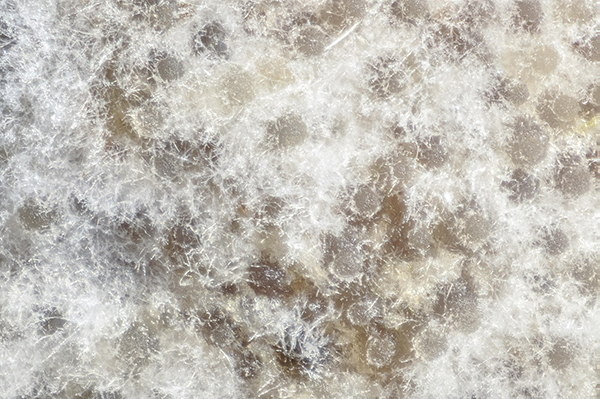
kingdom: Fungi
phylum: Ascomycota
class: Sordariomycetes
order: Hypocreales
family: Bionectriaceae
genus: Nectriopsis
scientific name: Nectriopsis
